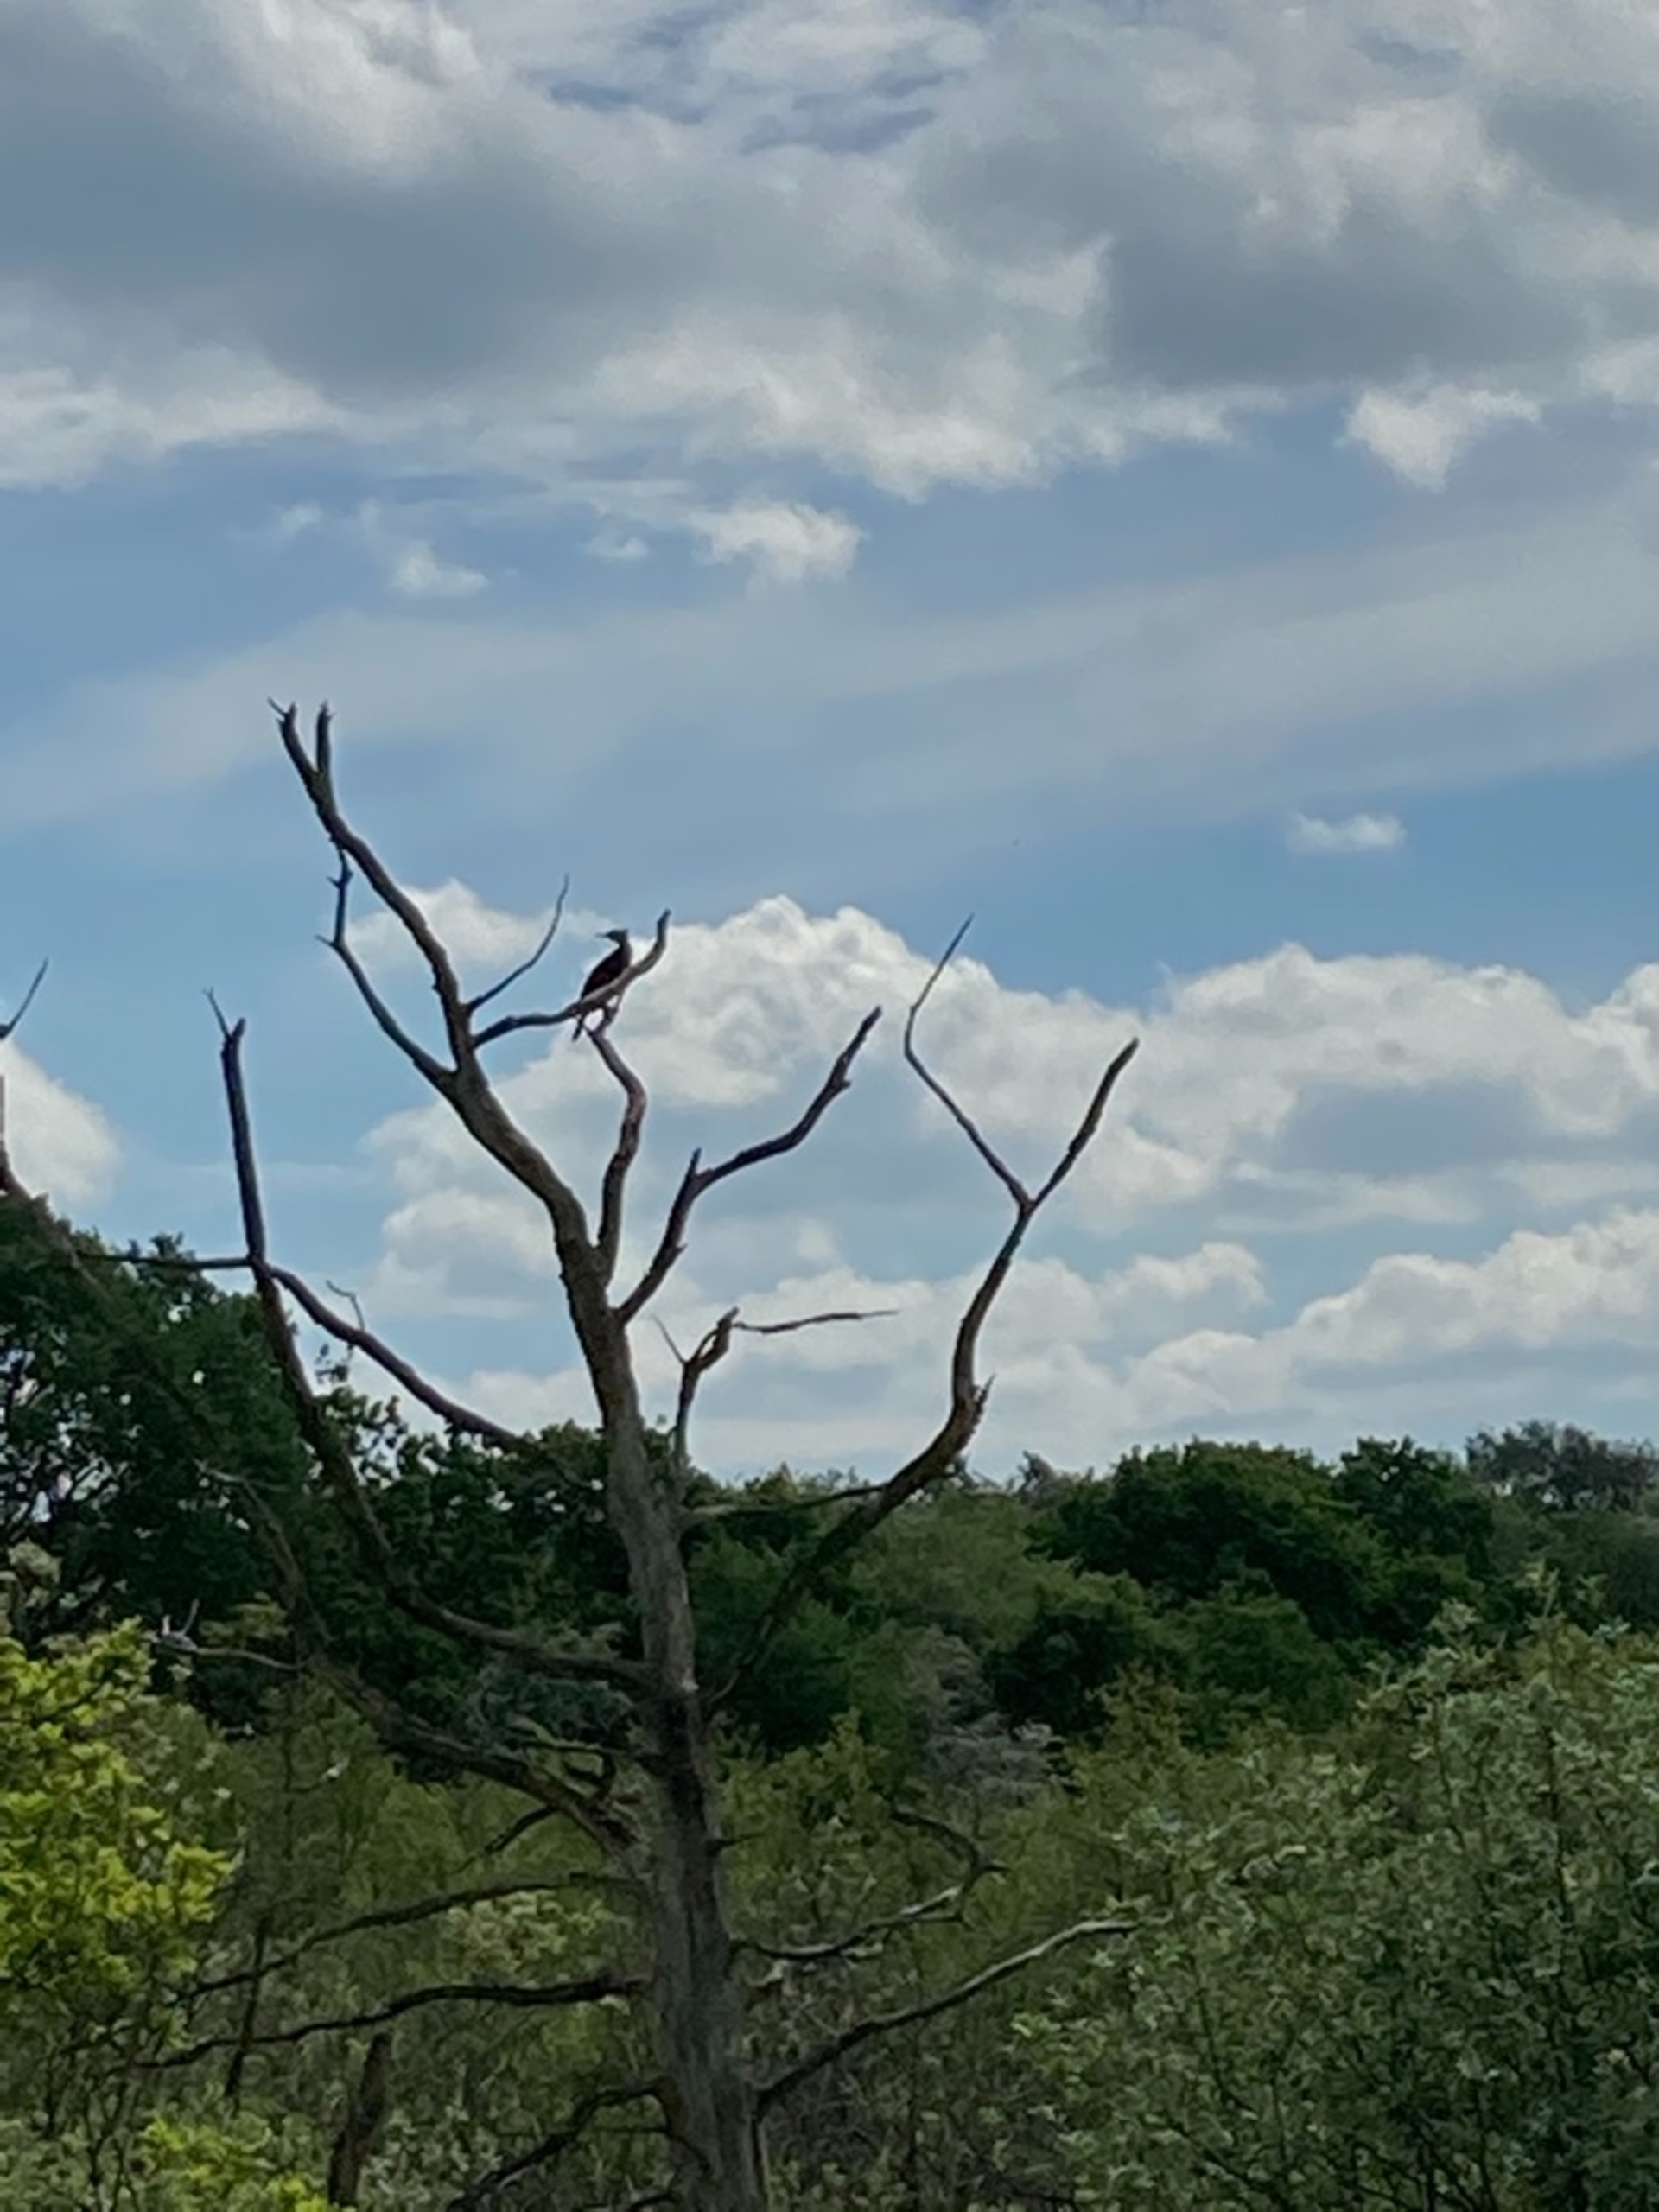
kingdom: Animalia
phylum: Chordata
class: Aves
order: Suliformes
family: Phalacrocoracidae
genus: Phalacrocorax
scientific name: Phalacrocorax carbo
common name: Skarv
